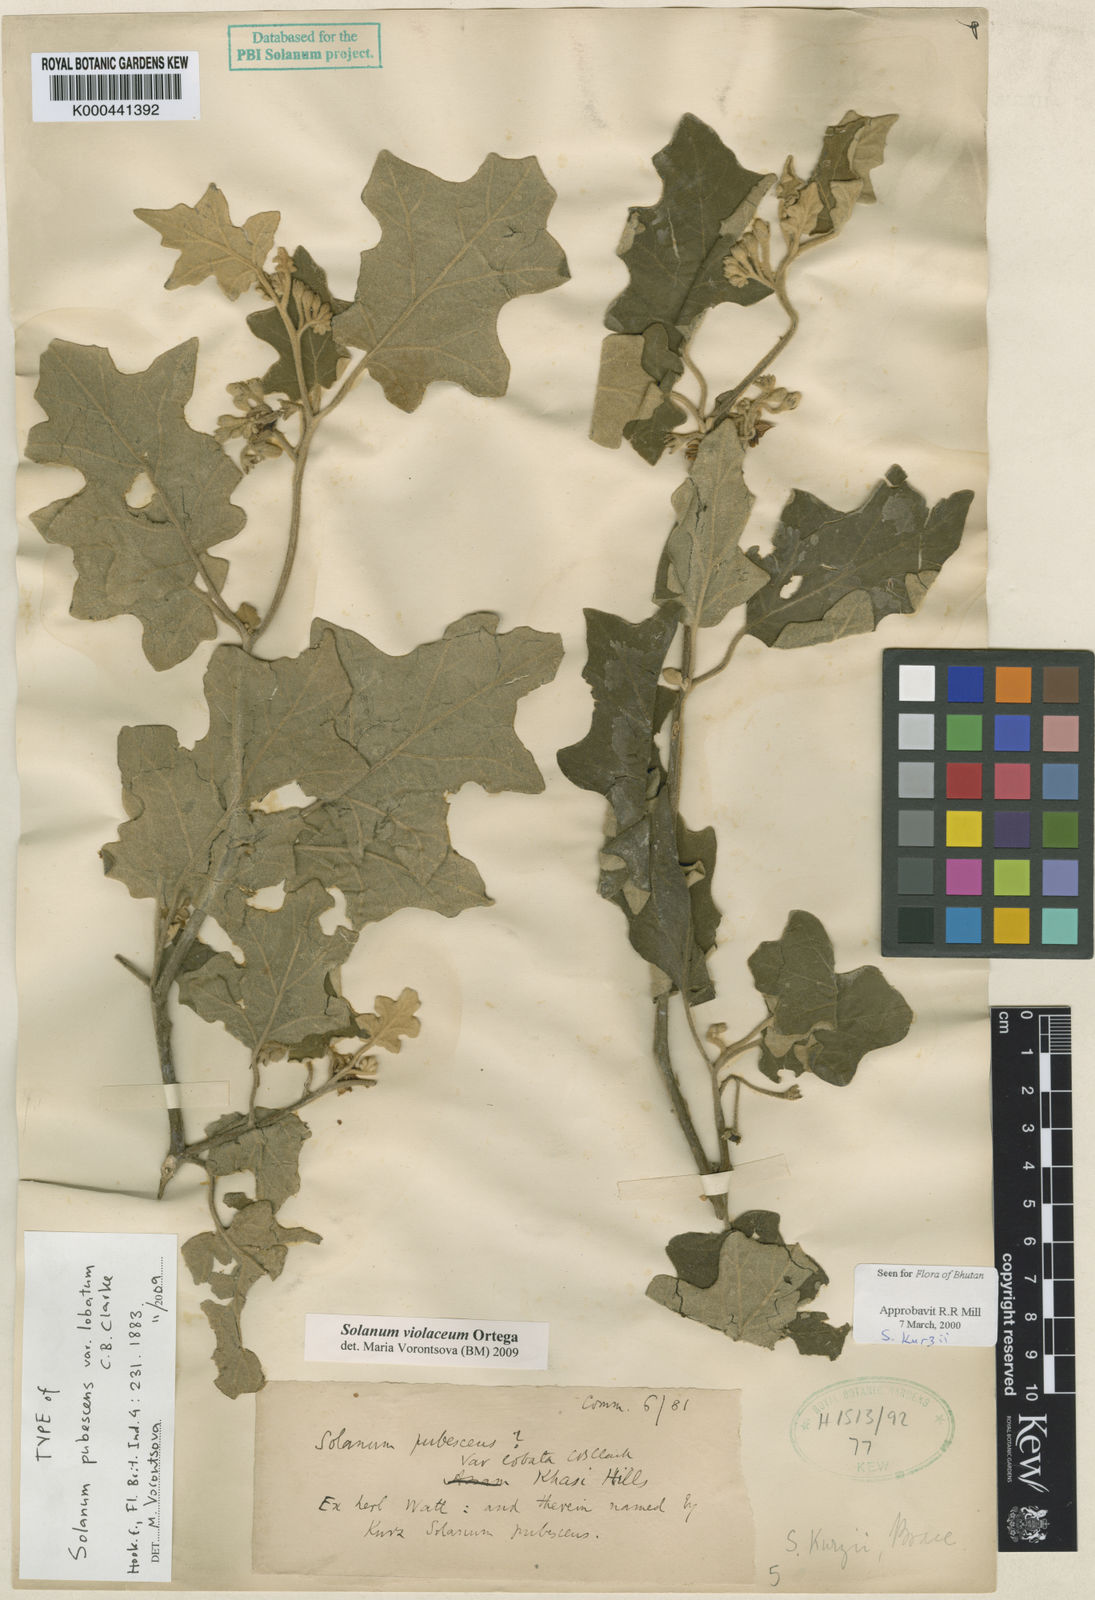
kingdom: Plantae
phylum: Tracheophyta
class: Magnoliopsida
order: Solanales
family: Solanaceae
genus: Solanum
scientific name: Solanum violaceum
